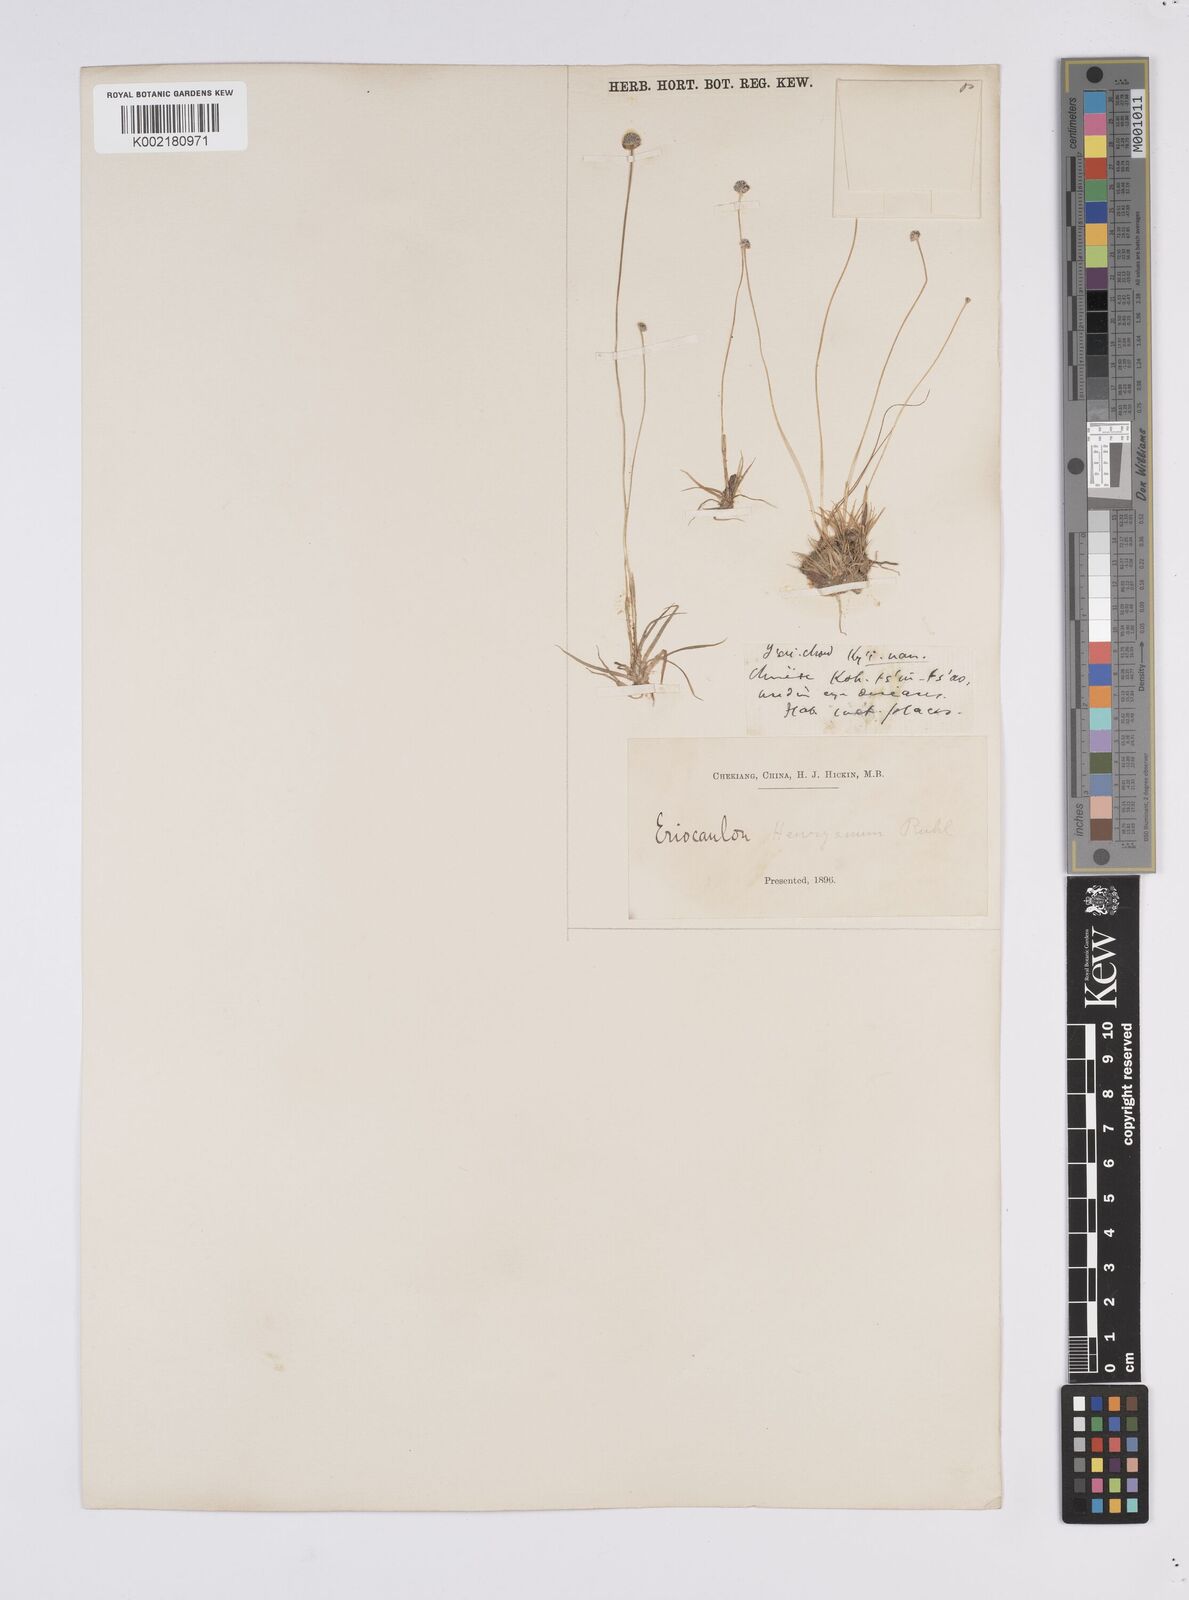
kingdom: Plantae
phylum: Tracheophyta
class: Liliopsida
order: Poales
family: Eriocaulaceae
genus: Eriocaulon
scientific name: Eriocaulon henryanum
